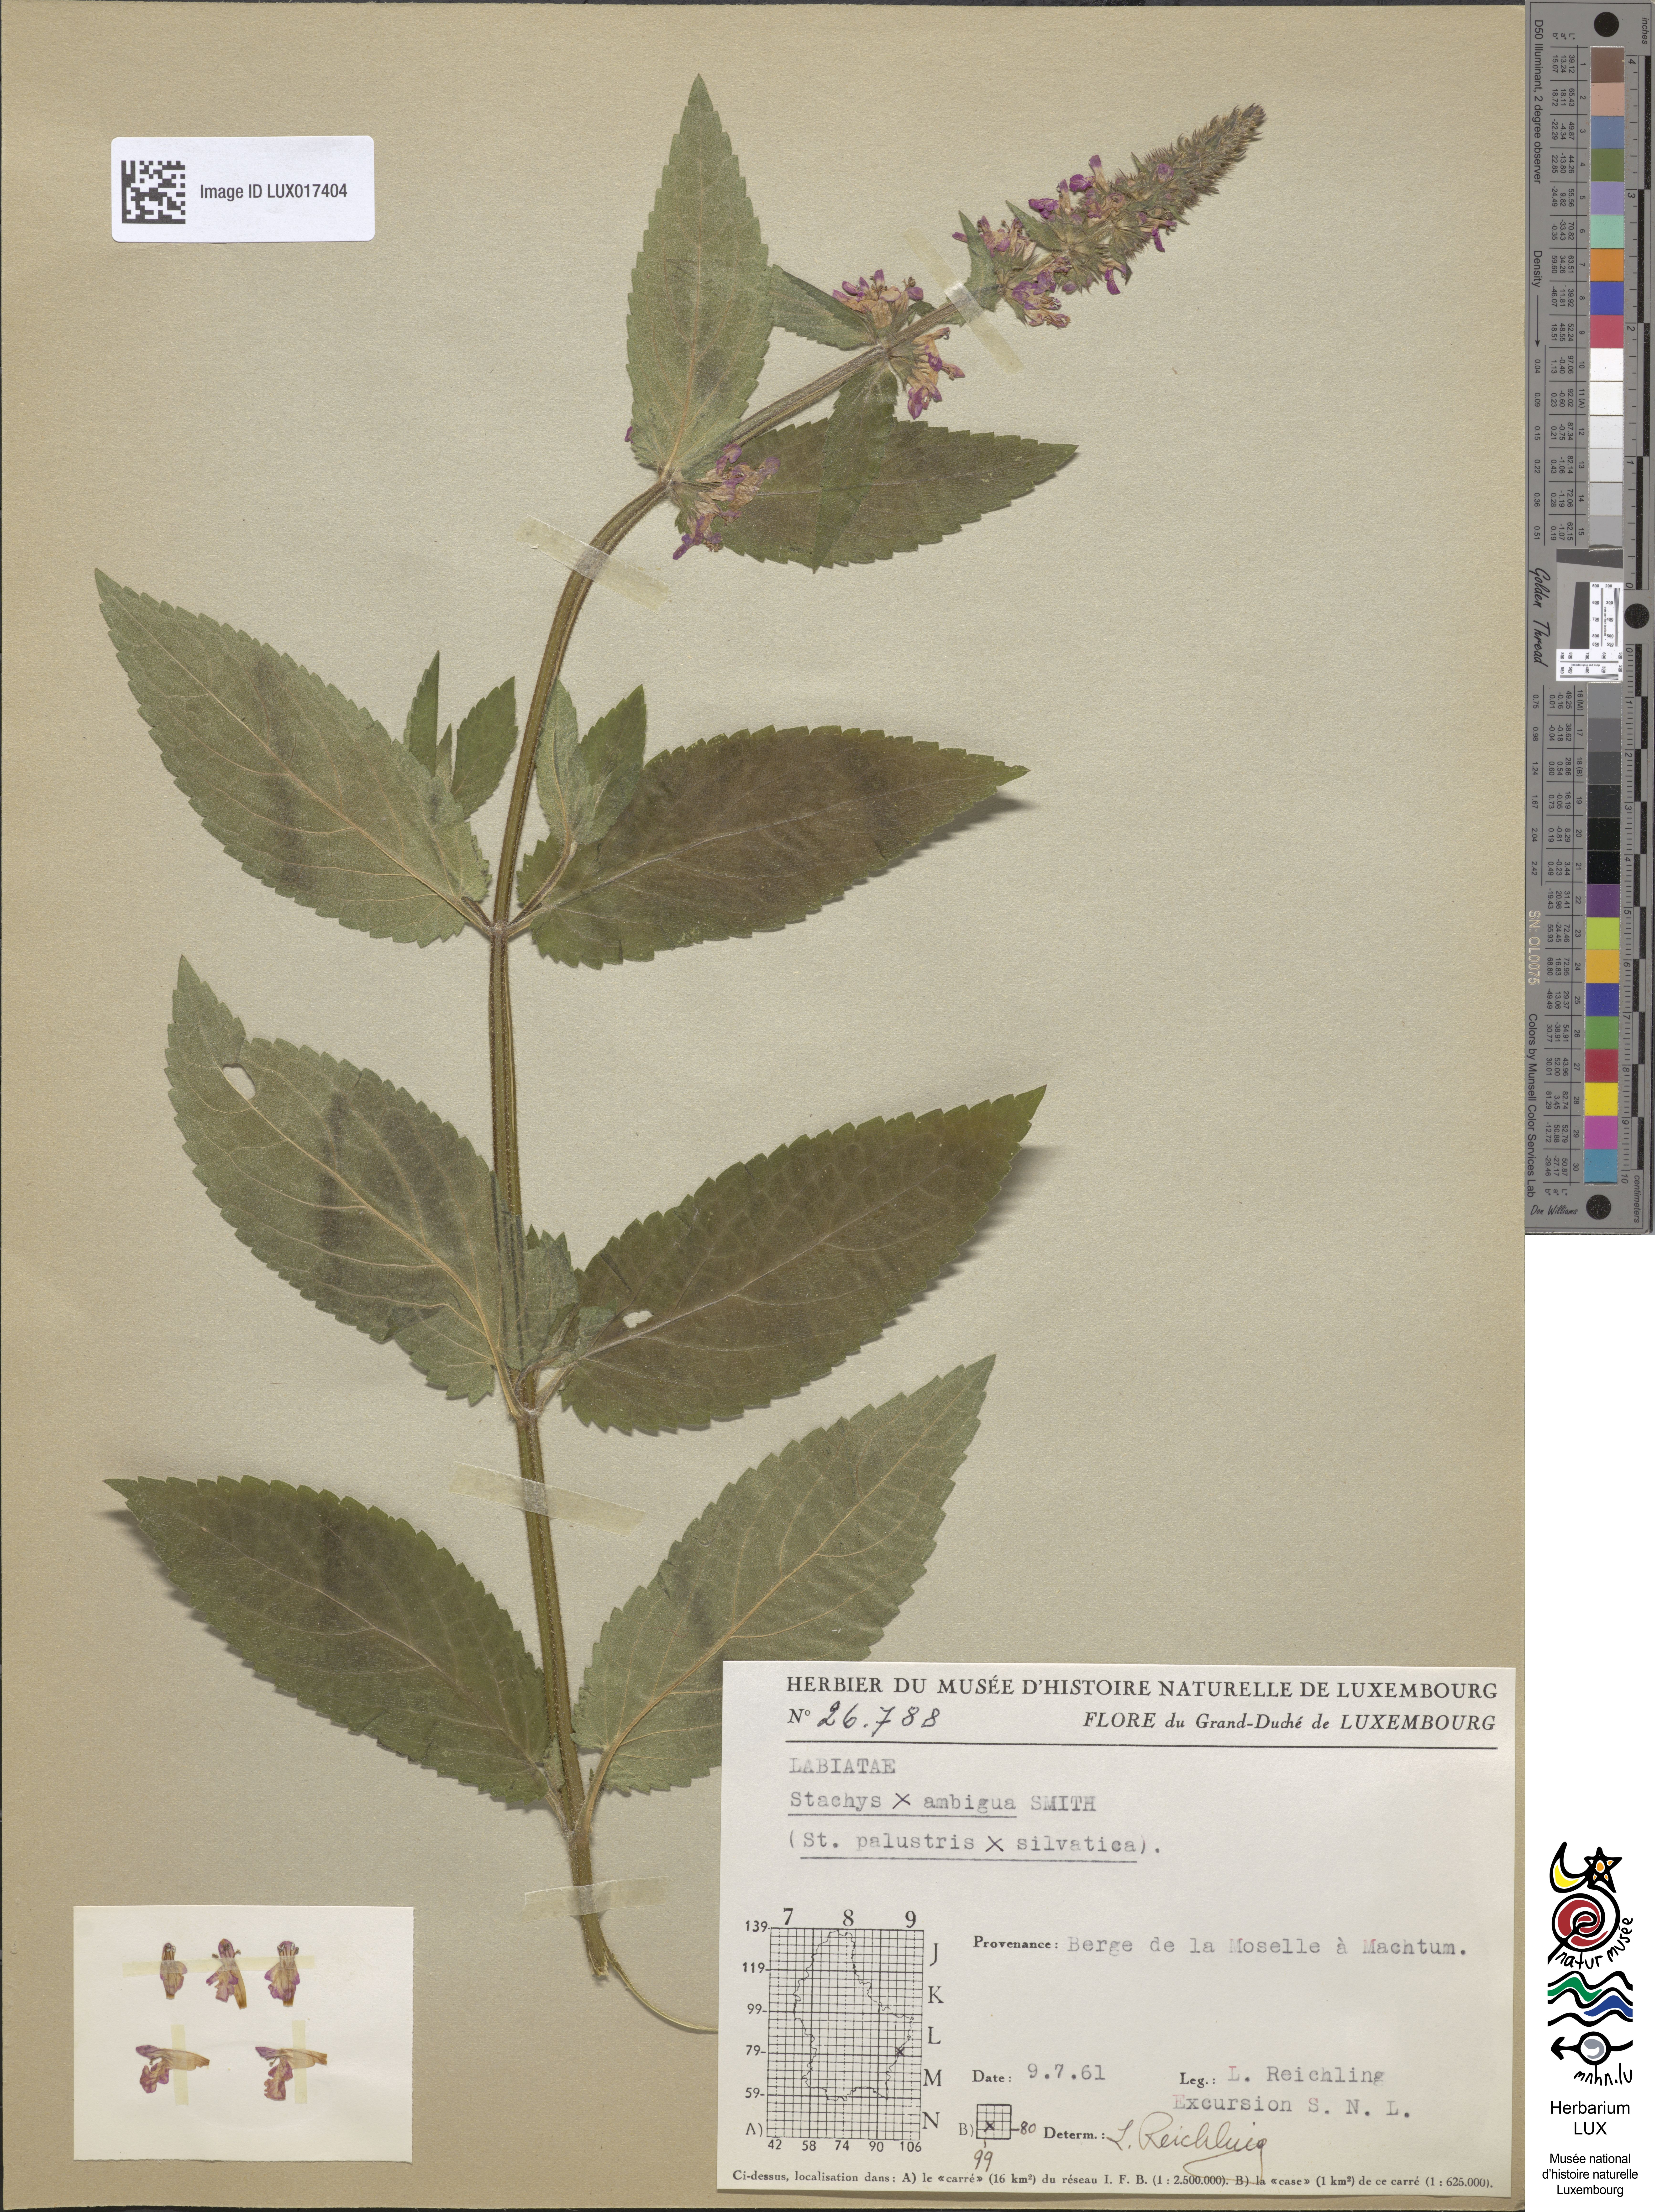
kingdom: Plantae
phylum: Tracheophyta
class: Magnoliopsida
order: Lamiales
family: Lamiaceae
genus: Stachys
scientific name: Stachys ambigua
